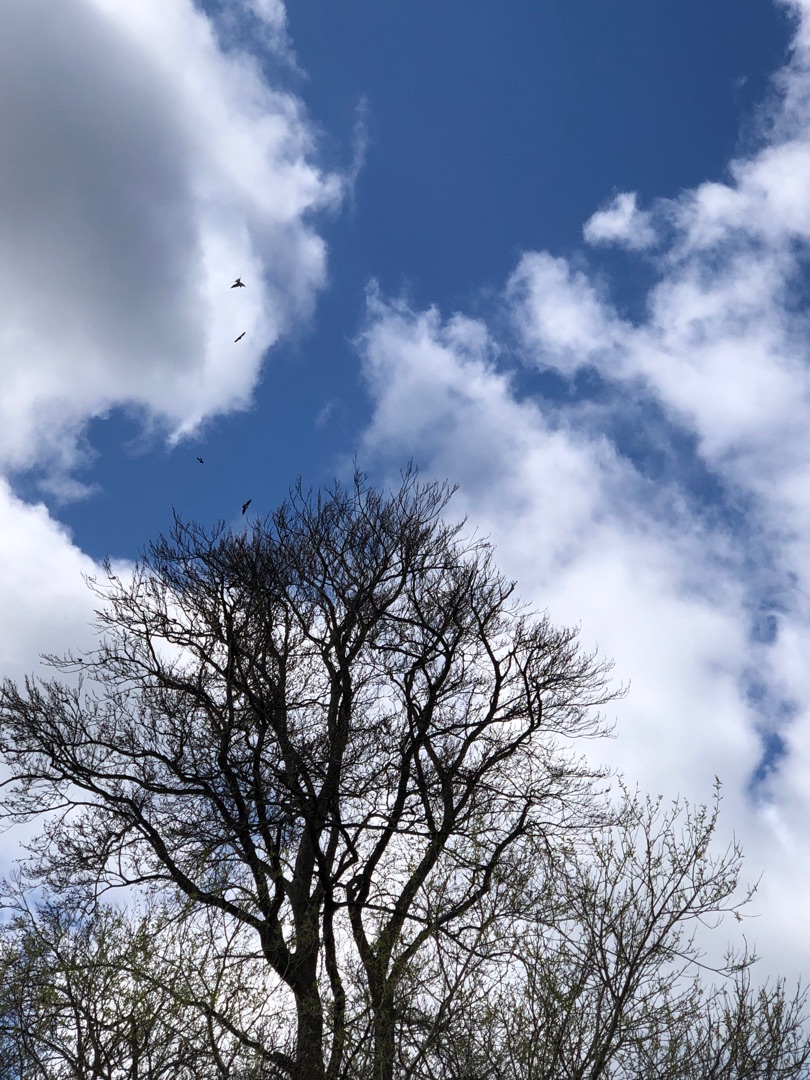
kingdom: Animalia
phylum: Chordata
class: Aves
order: Passeriformes
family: Hirundinidae
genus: Hirundo
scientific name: Hirundo rustica
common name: Landsvale
